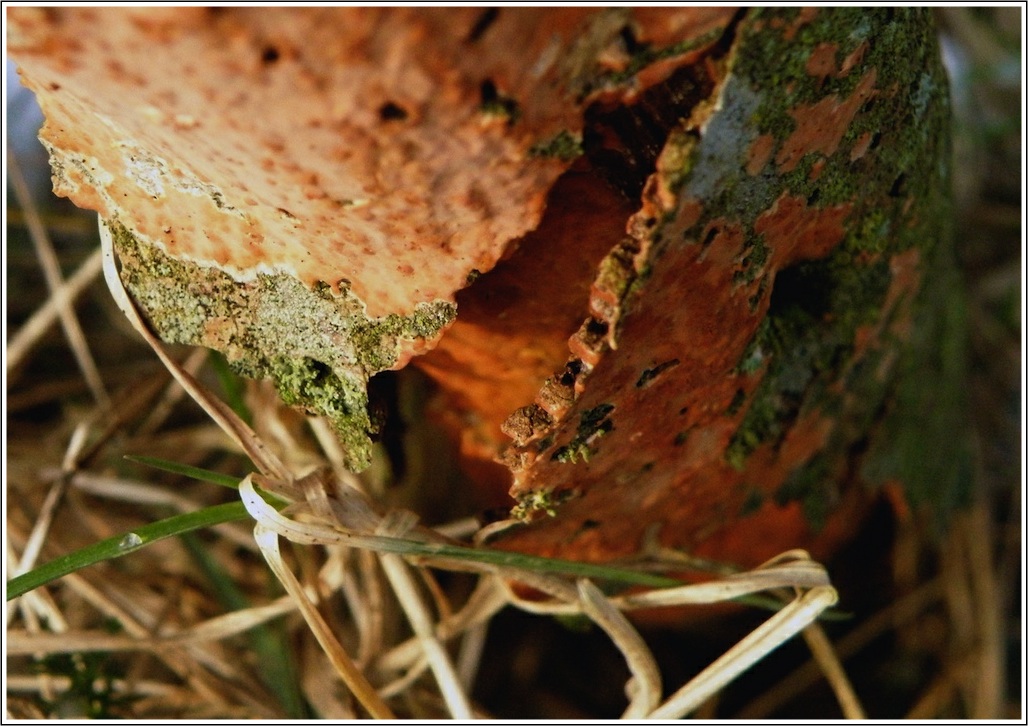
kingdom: Fungi
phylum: Basidiomycota
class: Agaricomycetes
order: Russulales
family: Peniophoraceae
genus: Peniophora
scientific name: Peniophora incarnata
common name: laksefarvet voksskind
